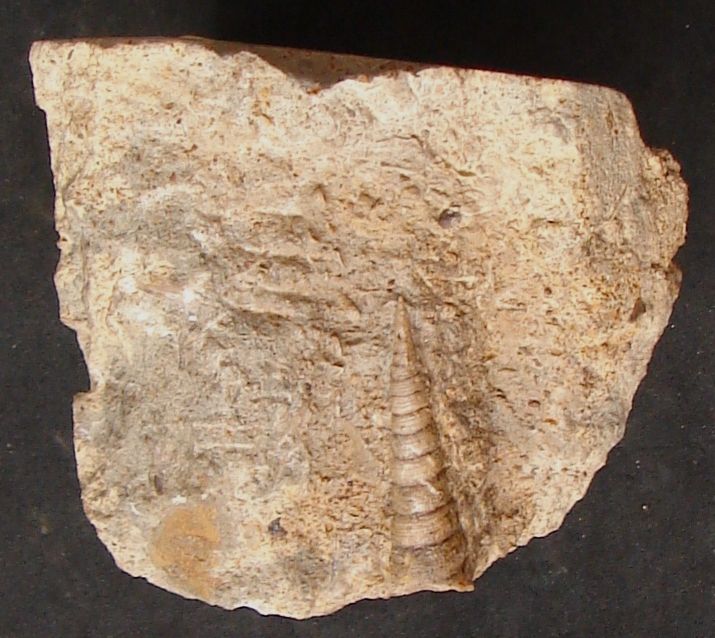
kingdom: Animalia
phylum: Mollusca
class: Gastropoda
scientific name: Gastropoda
